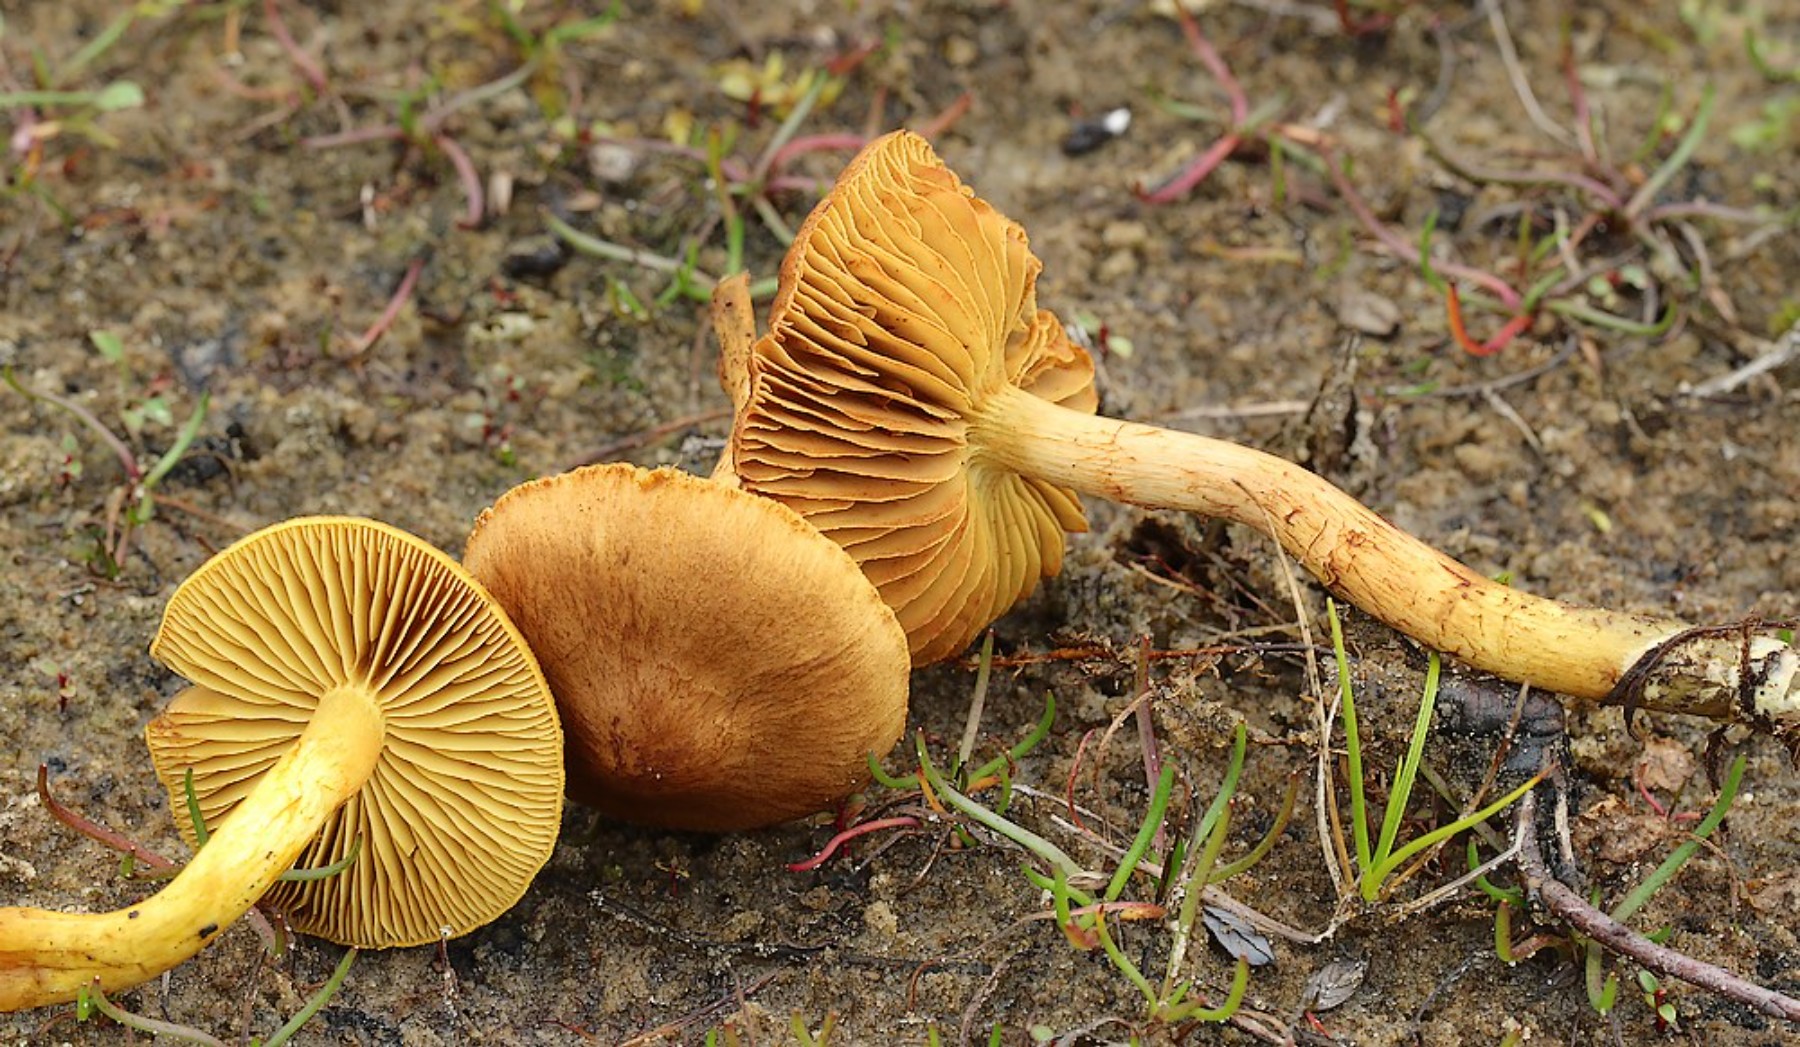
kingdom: Fungi
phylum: Basidiomycota
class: Agaricomycetes
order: Agaricales
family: Cortinariaceae
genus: Cortinarius
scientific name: Cortinarius uliginosus
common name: Marsh webcap
